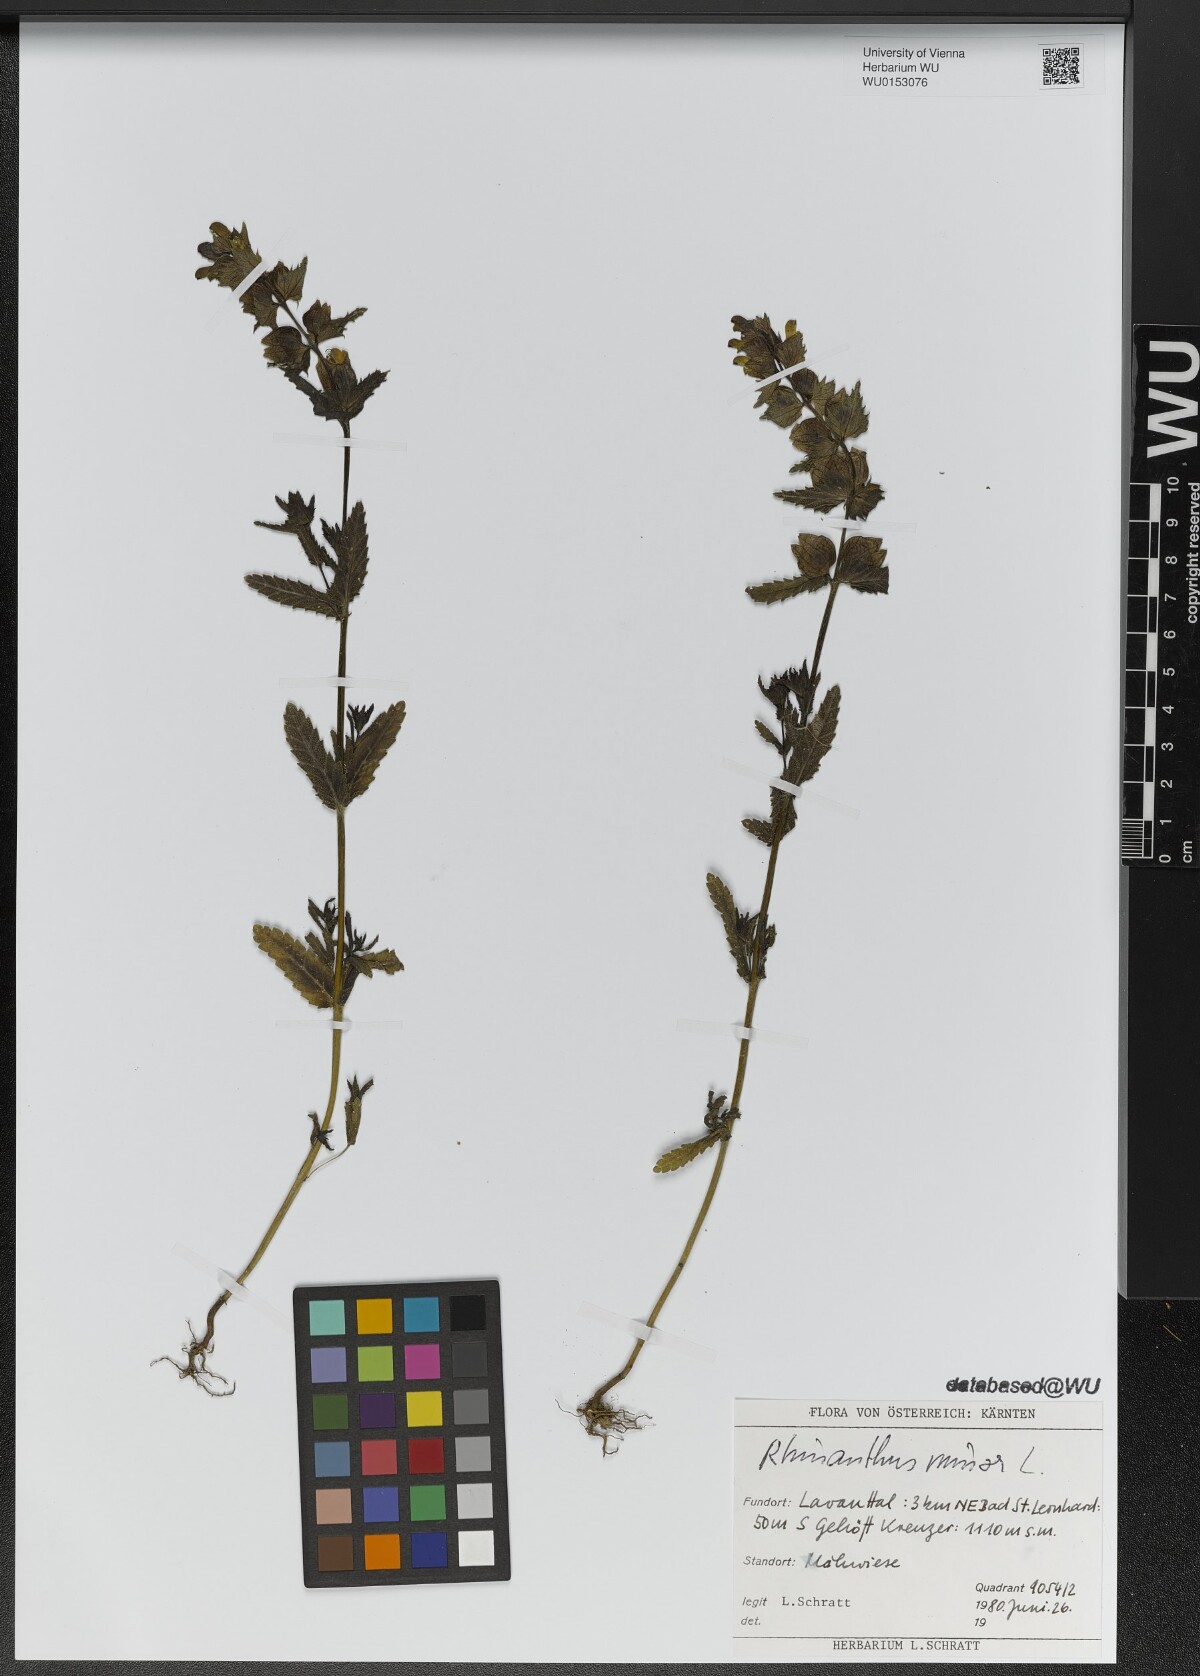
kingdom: Plantae
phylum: Tracheophyta
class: Magnoliopsida
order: Lamiales
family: Orobanchaceae
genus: Rhinanthus
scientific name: Rhinanthus minor
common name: Yellow-rattle
